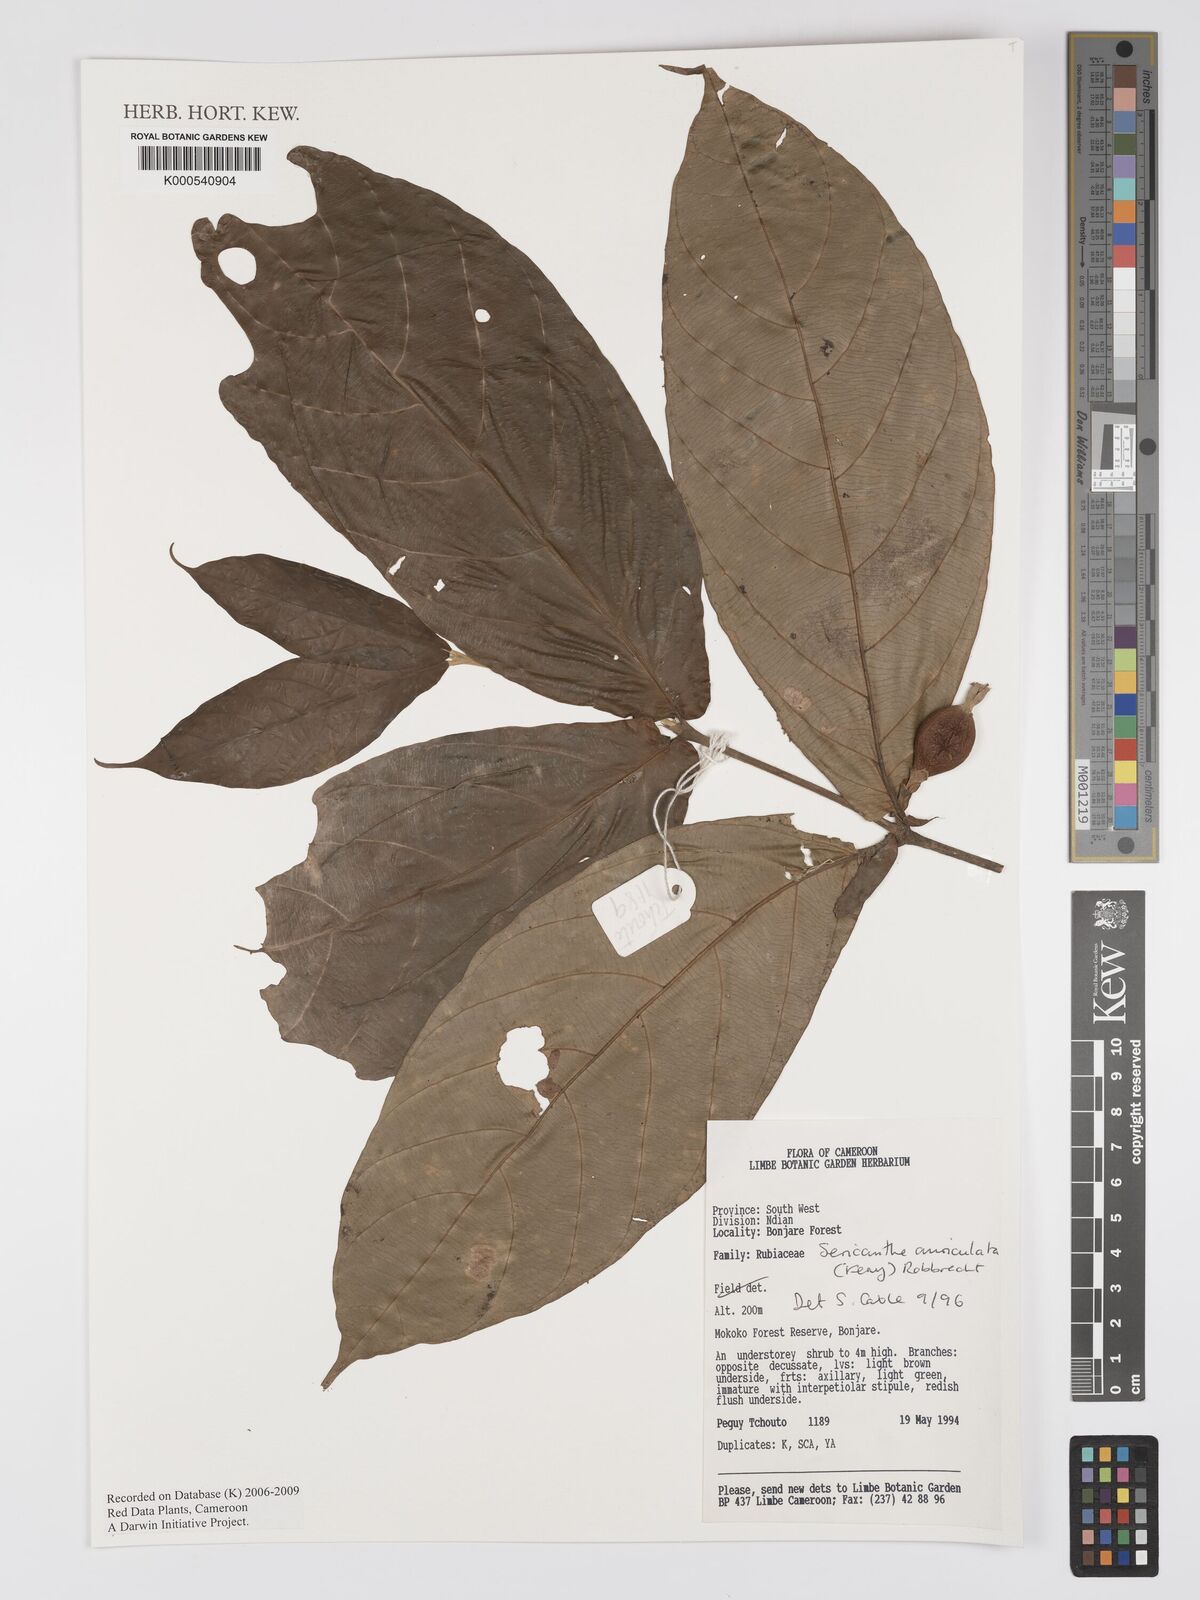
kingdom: Plantae
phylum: Tracheophyta
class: Magnoliopsida
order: Gentianales
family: Rubiaceae
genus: Sericanthe
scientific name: Sericanthe auriculata
